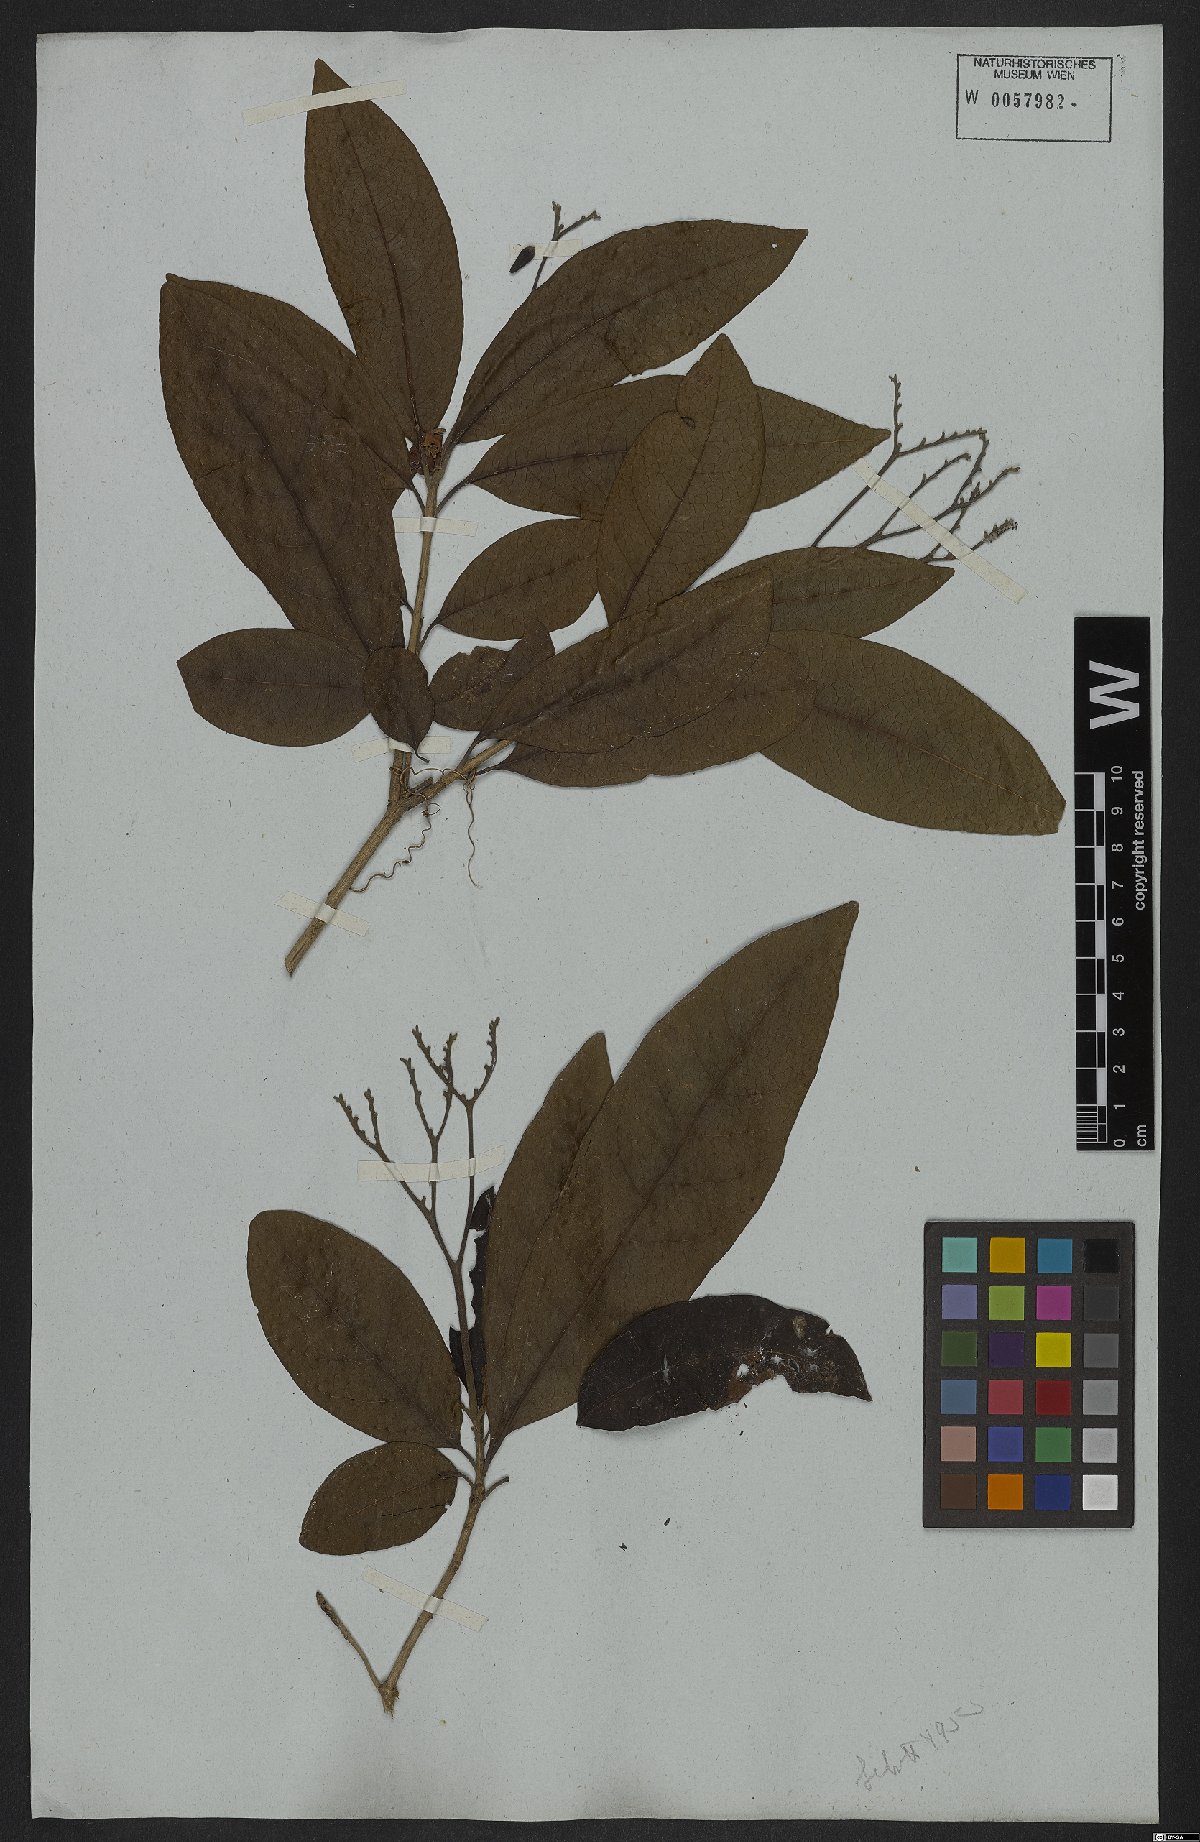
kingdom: Plantae
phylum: Tracheophyta
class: Magnoliopsida
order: Boraginales
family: Cordiaceae
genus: Cordia
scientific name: Cordia glabra
